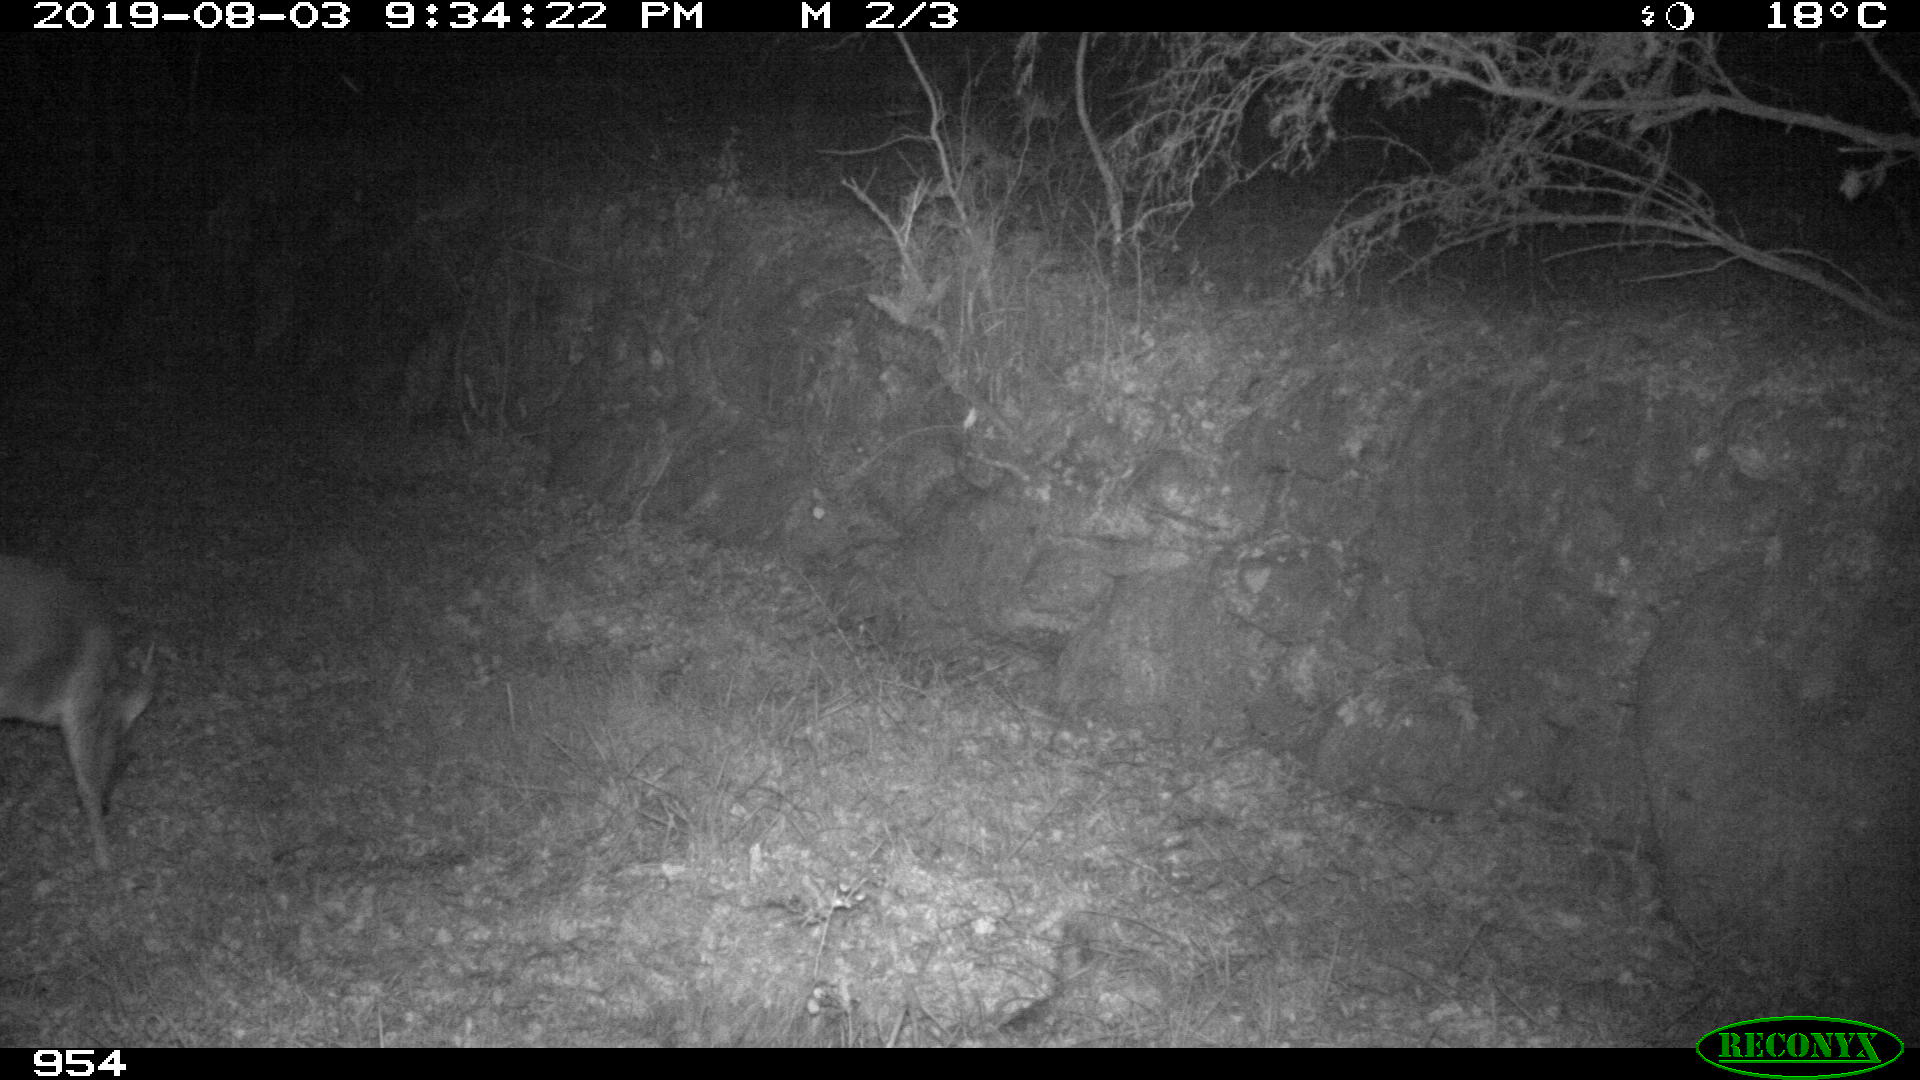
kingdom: Animalia
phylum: Chordata
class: Mammalia
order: Artiodactyla
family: Cervidae
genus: Capreolus
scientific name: Capreolus capreolus
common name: Western roe deer
